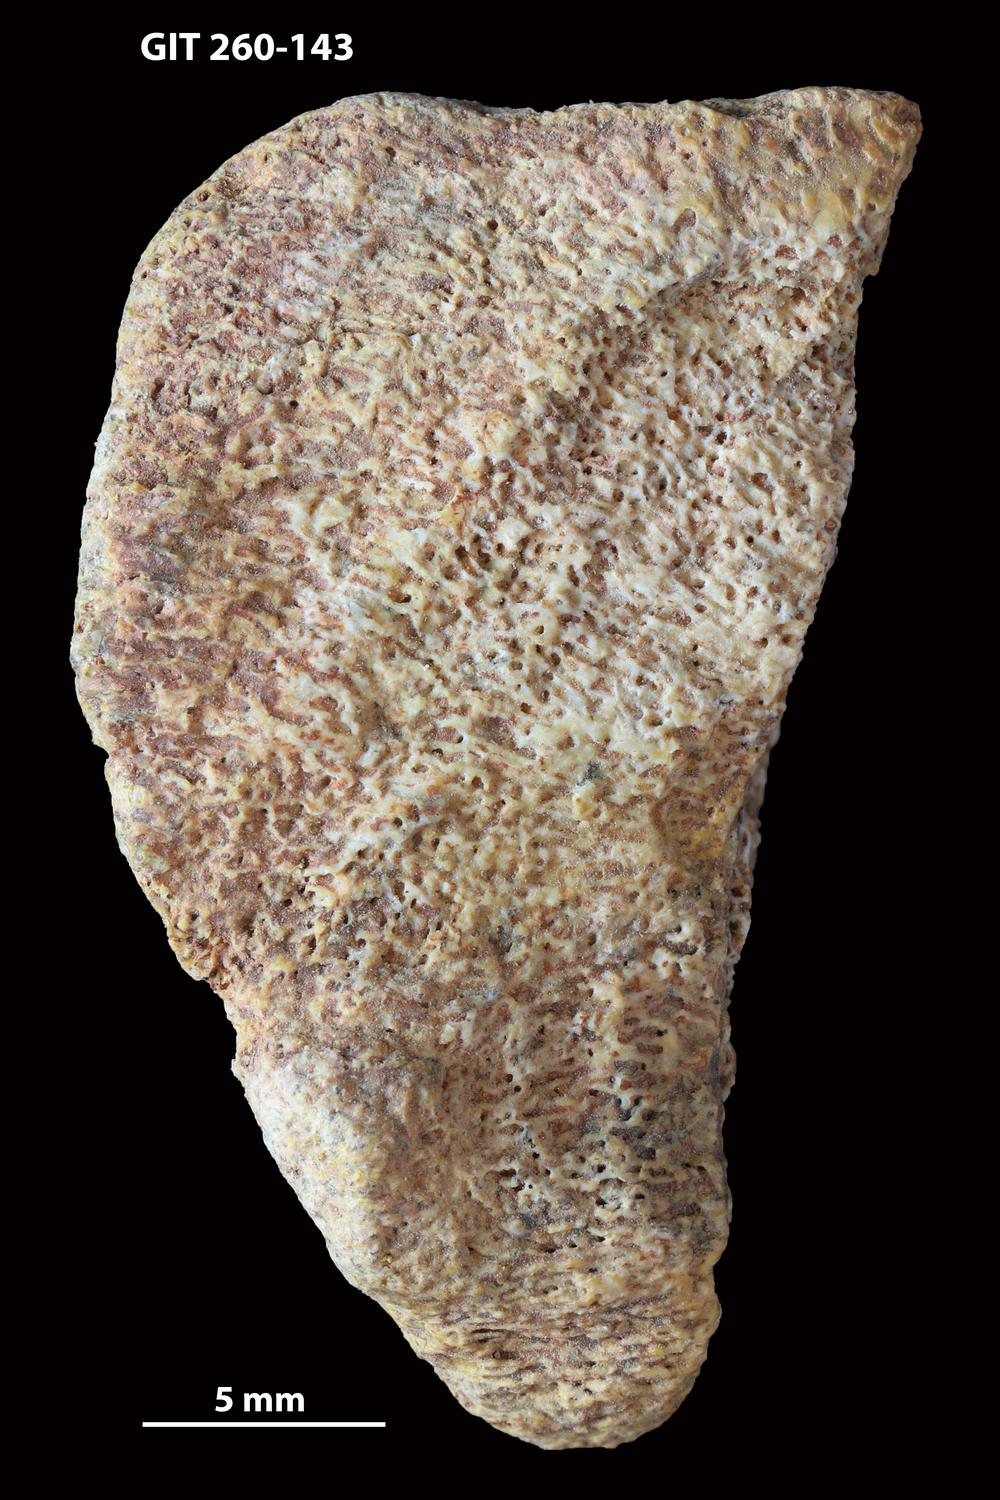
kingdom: Animalia
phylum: Chordata
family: Homostiidae
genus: Homostius
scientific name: Homostius
